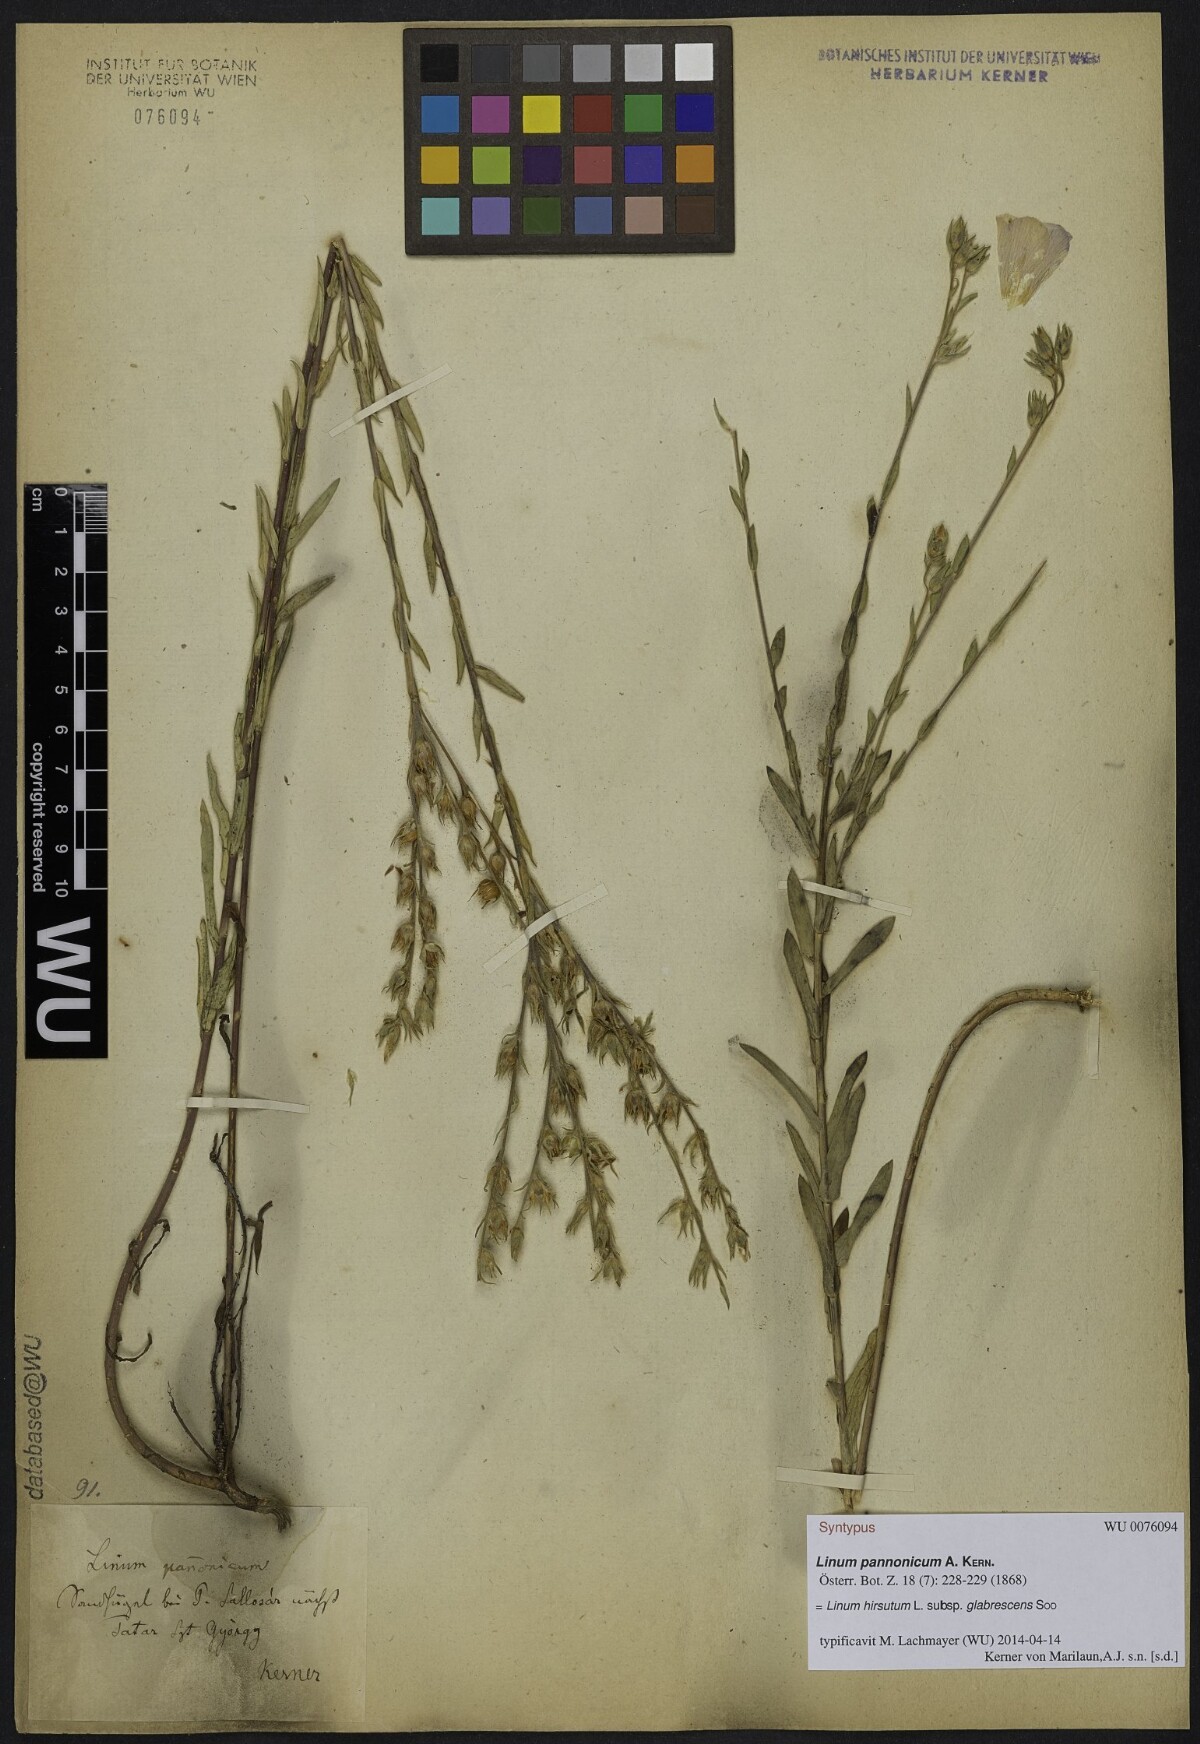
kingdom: Plantae
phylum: Tracheophyta
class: Magnoliopsida
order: Malpighiales
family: Linaceae
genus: Linum
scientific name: Linum hirsutum
